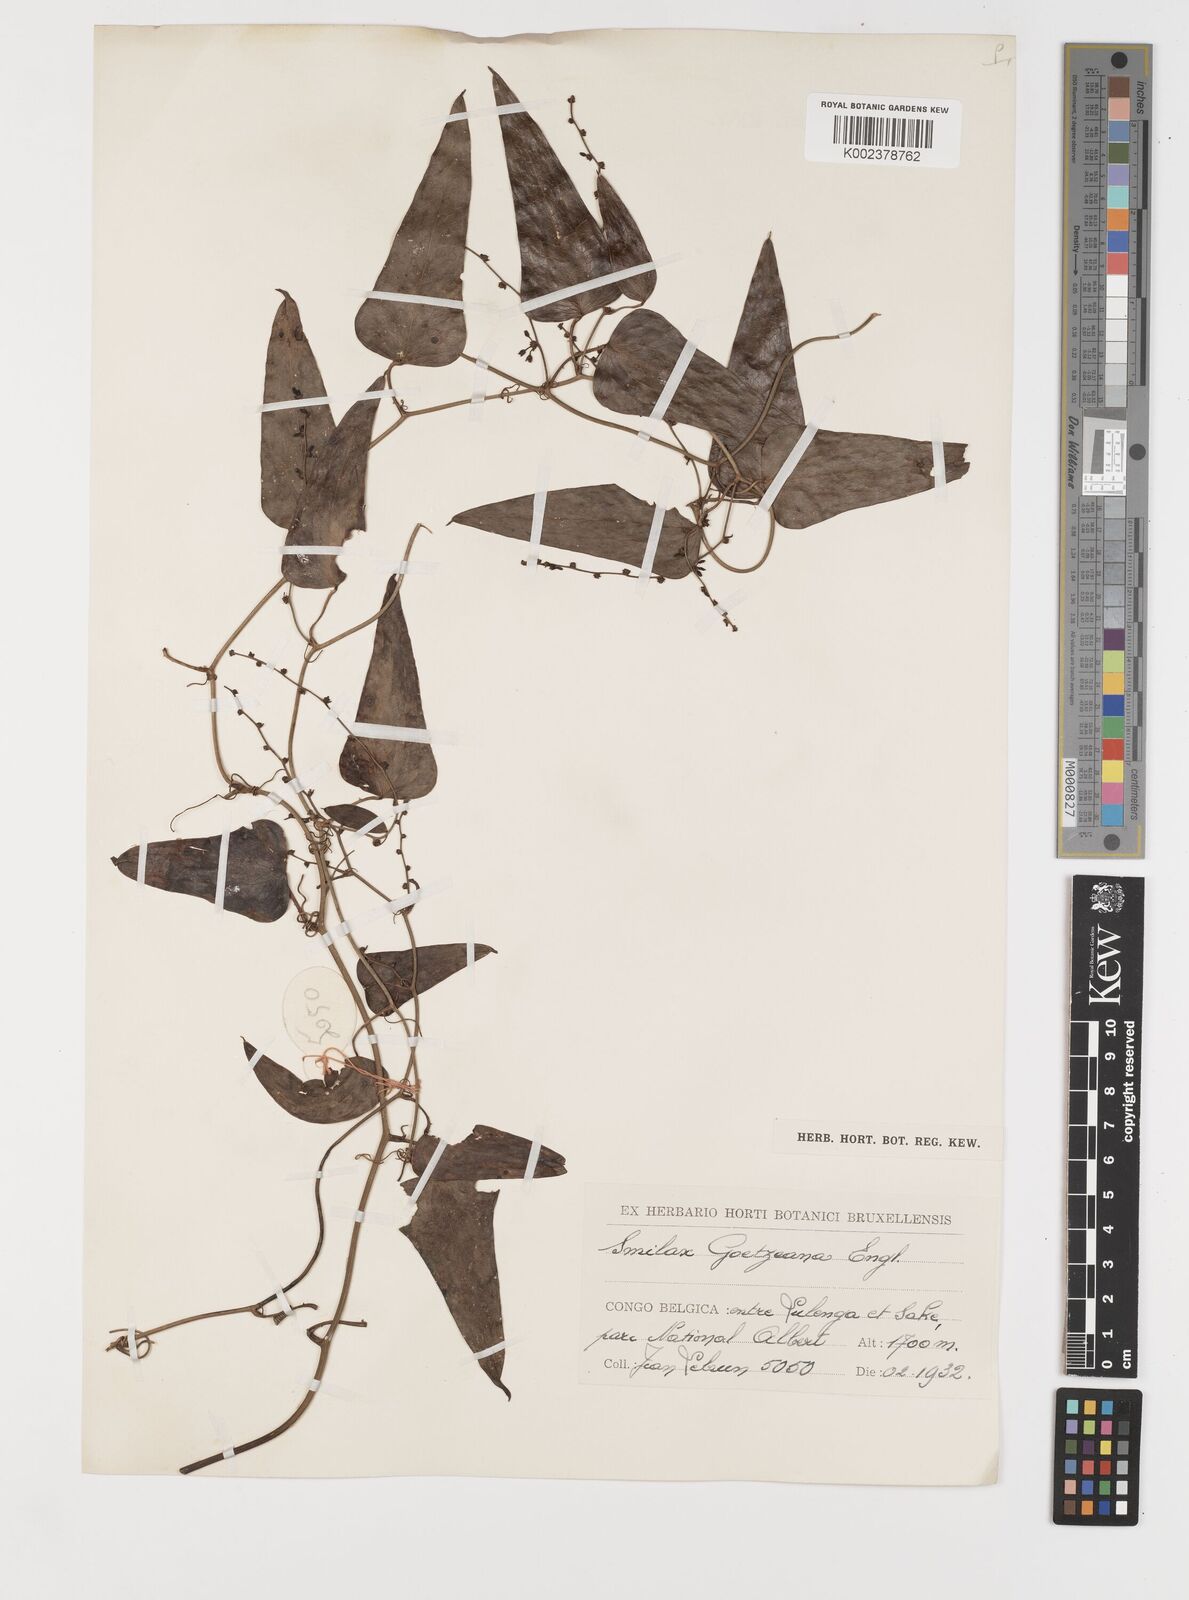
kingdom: Plantae
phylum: Tracheophyta
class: Liliopsida
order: Liliales
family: Smilacaceae
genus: Smilax
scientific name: Smilax aspera
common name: Common smilax
